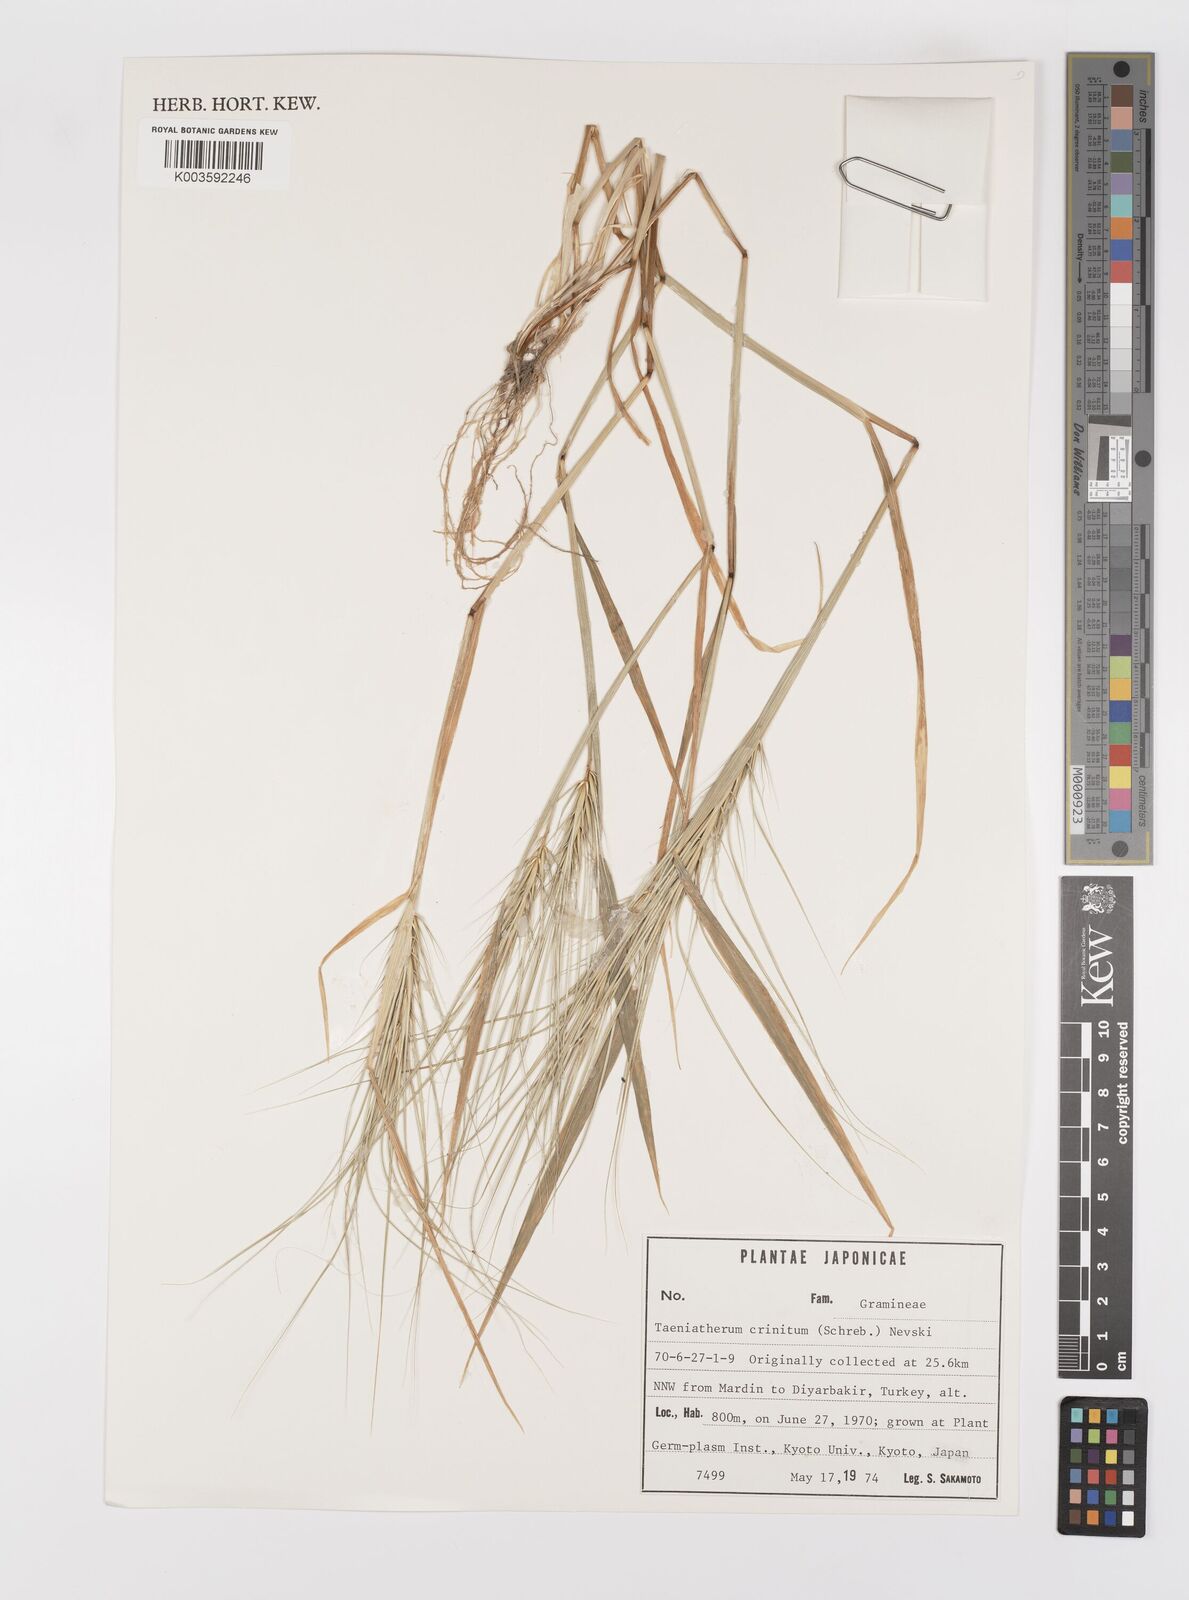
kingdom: Plantae
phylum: Tracheophyta
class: Liliopsida
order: Poales
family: Poaceae
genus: Taeniatherum
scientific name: Taeniatherum caput-medusae
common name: Medusahead
